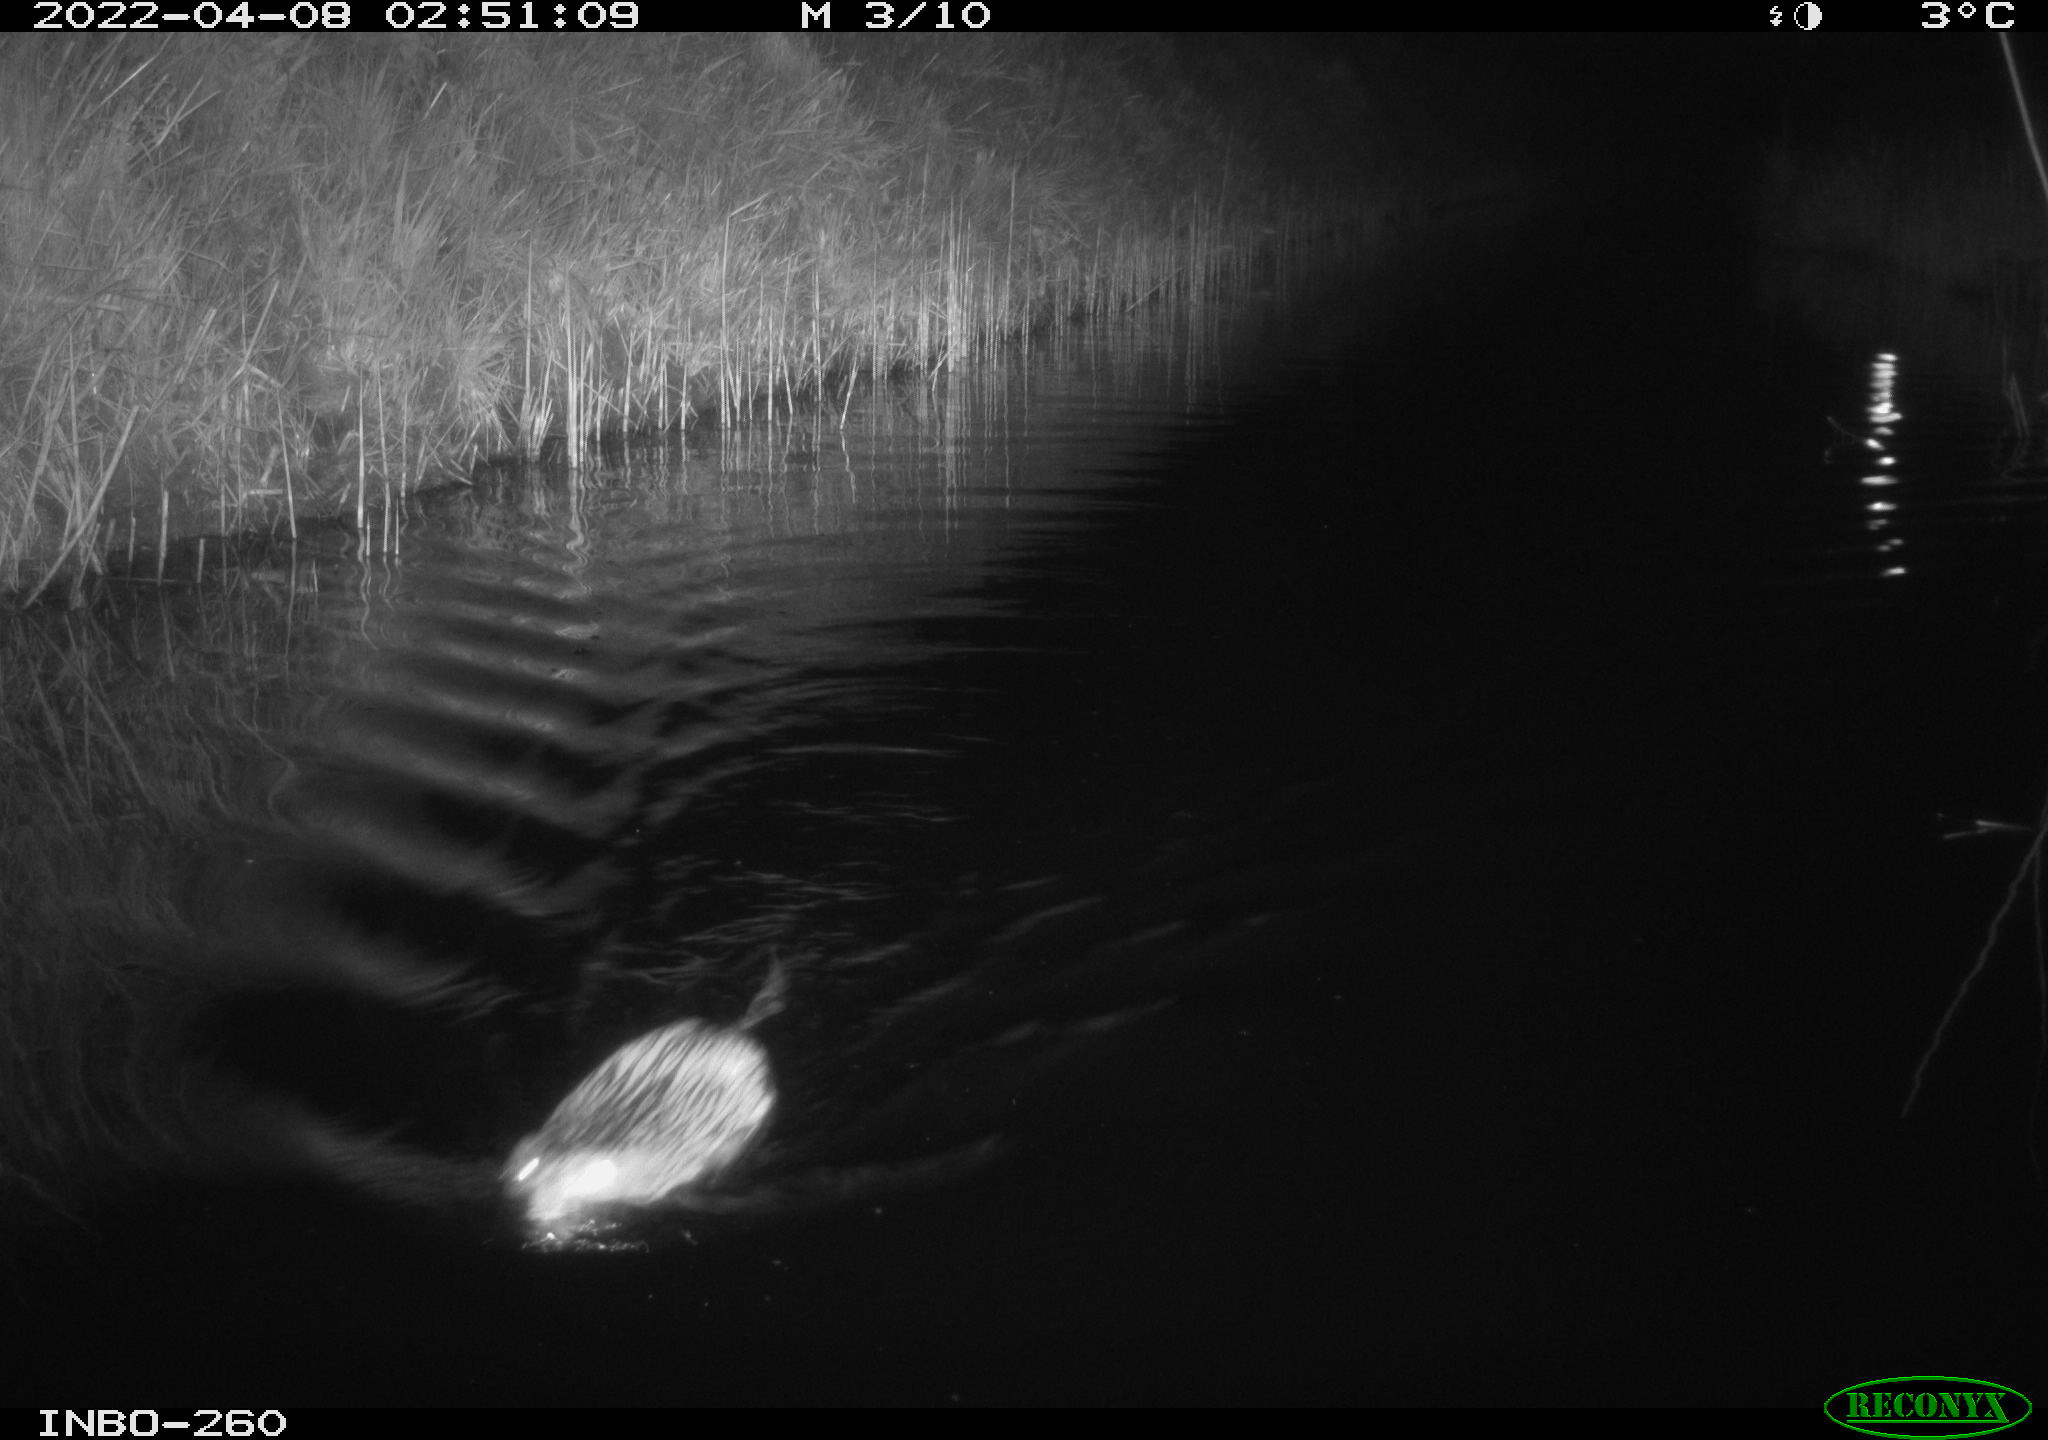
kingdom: Animalia
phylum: Chordata
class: Mammalia
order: Rodentia
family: Cricetidae
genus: Ondatra
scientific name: Ondatra zibethicus
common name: Muskrat
